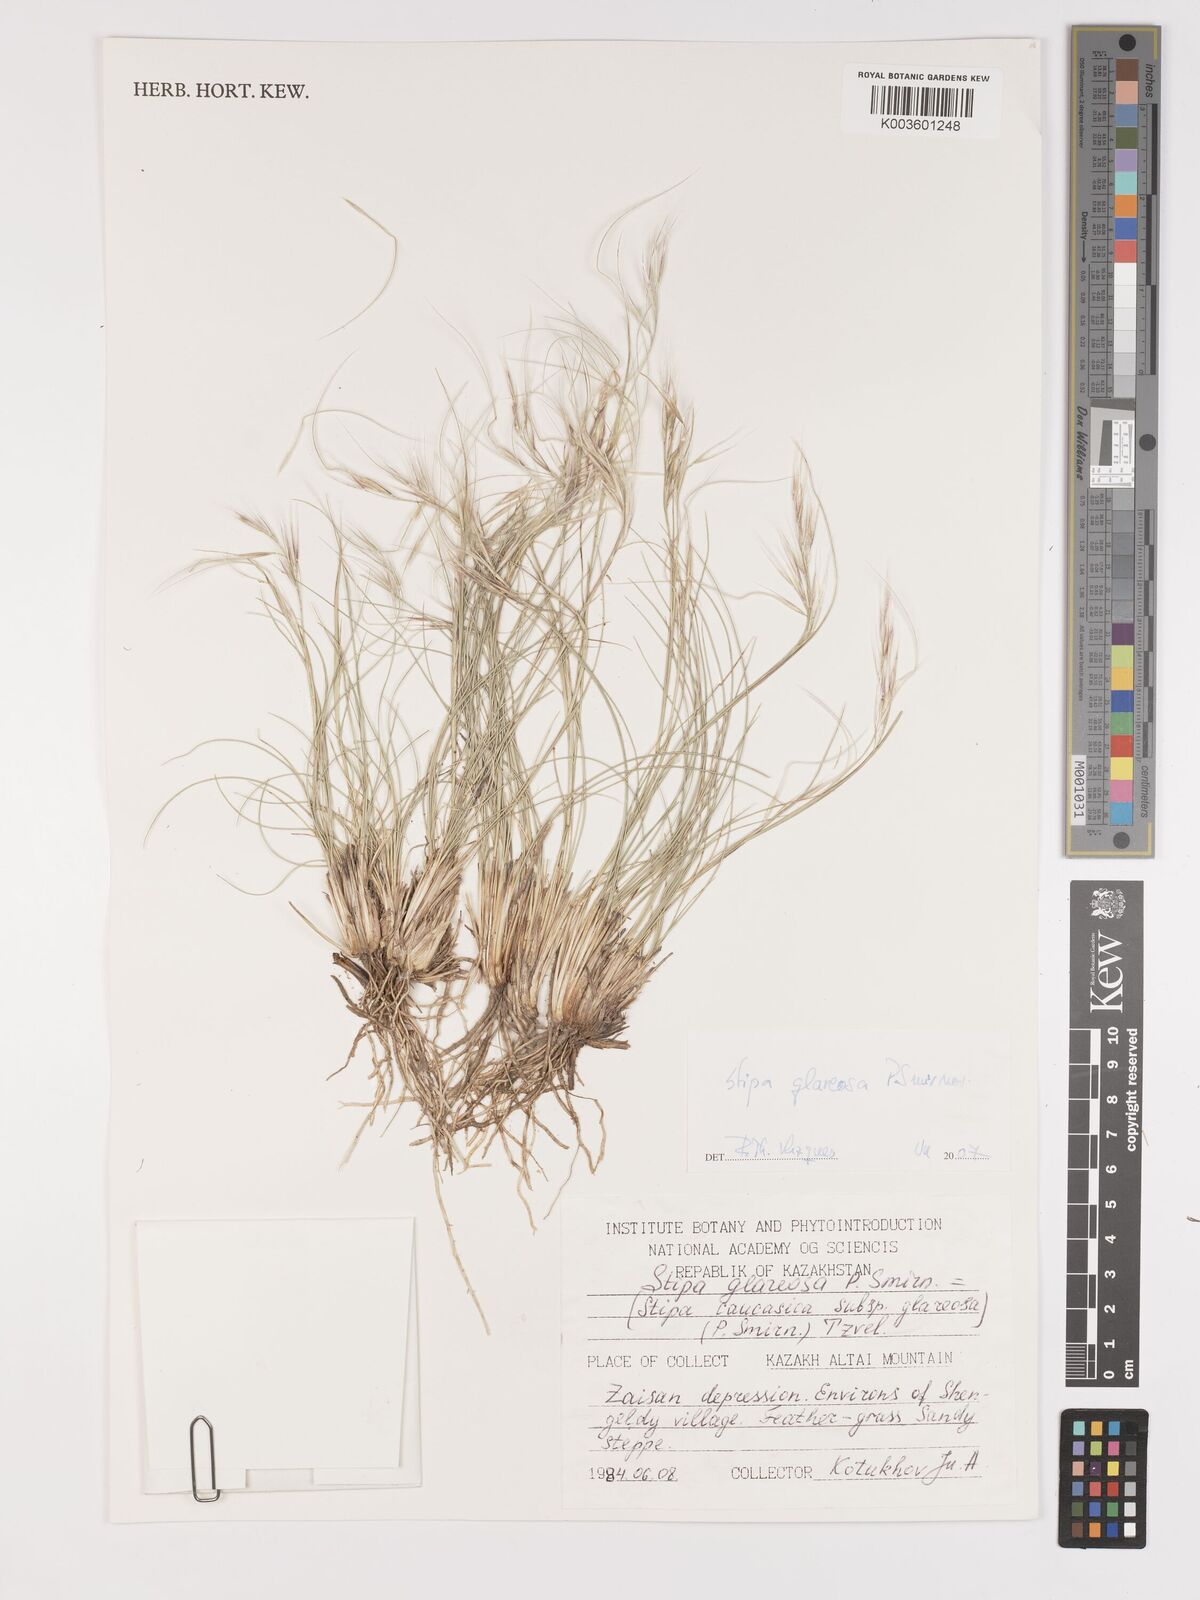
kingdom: Plantae
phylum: Tracheophyta
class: Liliopsida
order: Poales
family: Poaceae
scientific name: Poaceae
